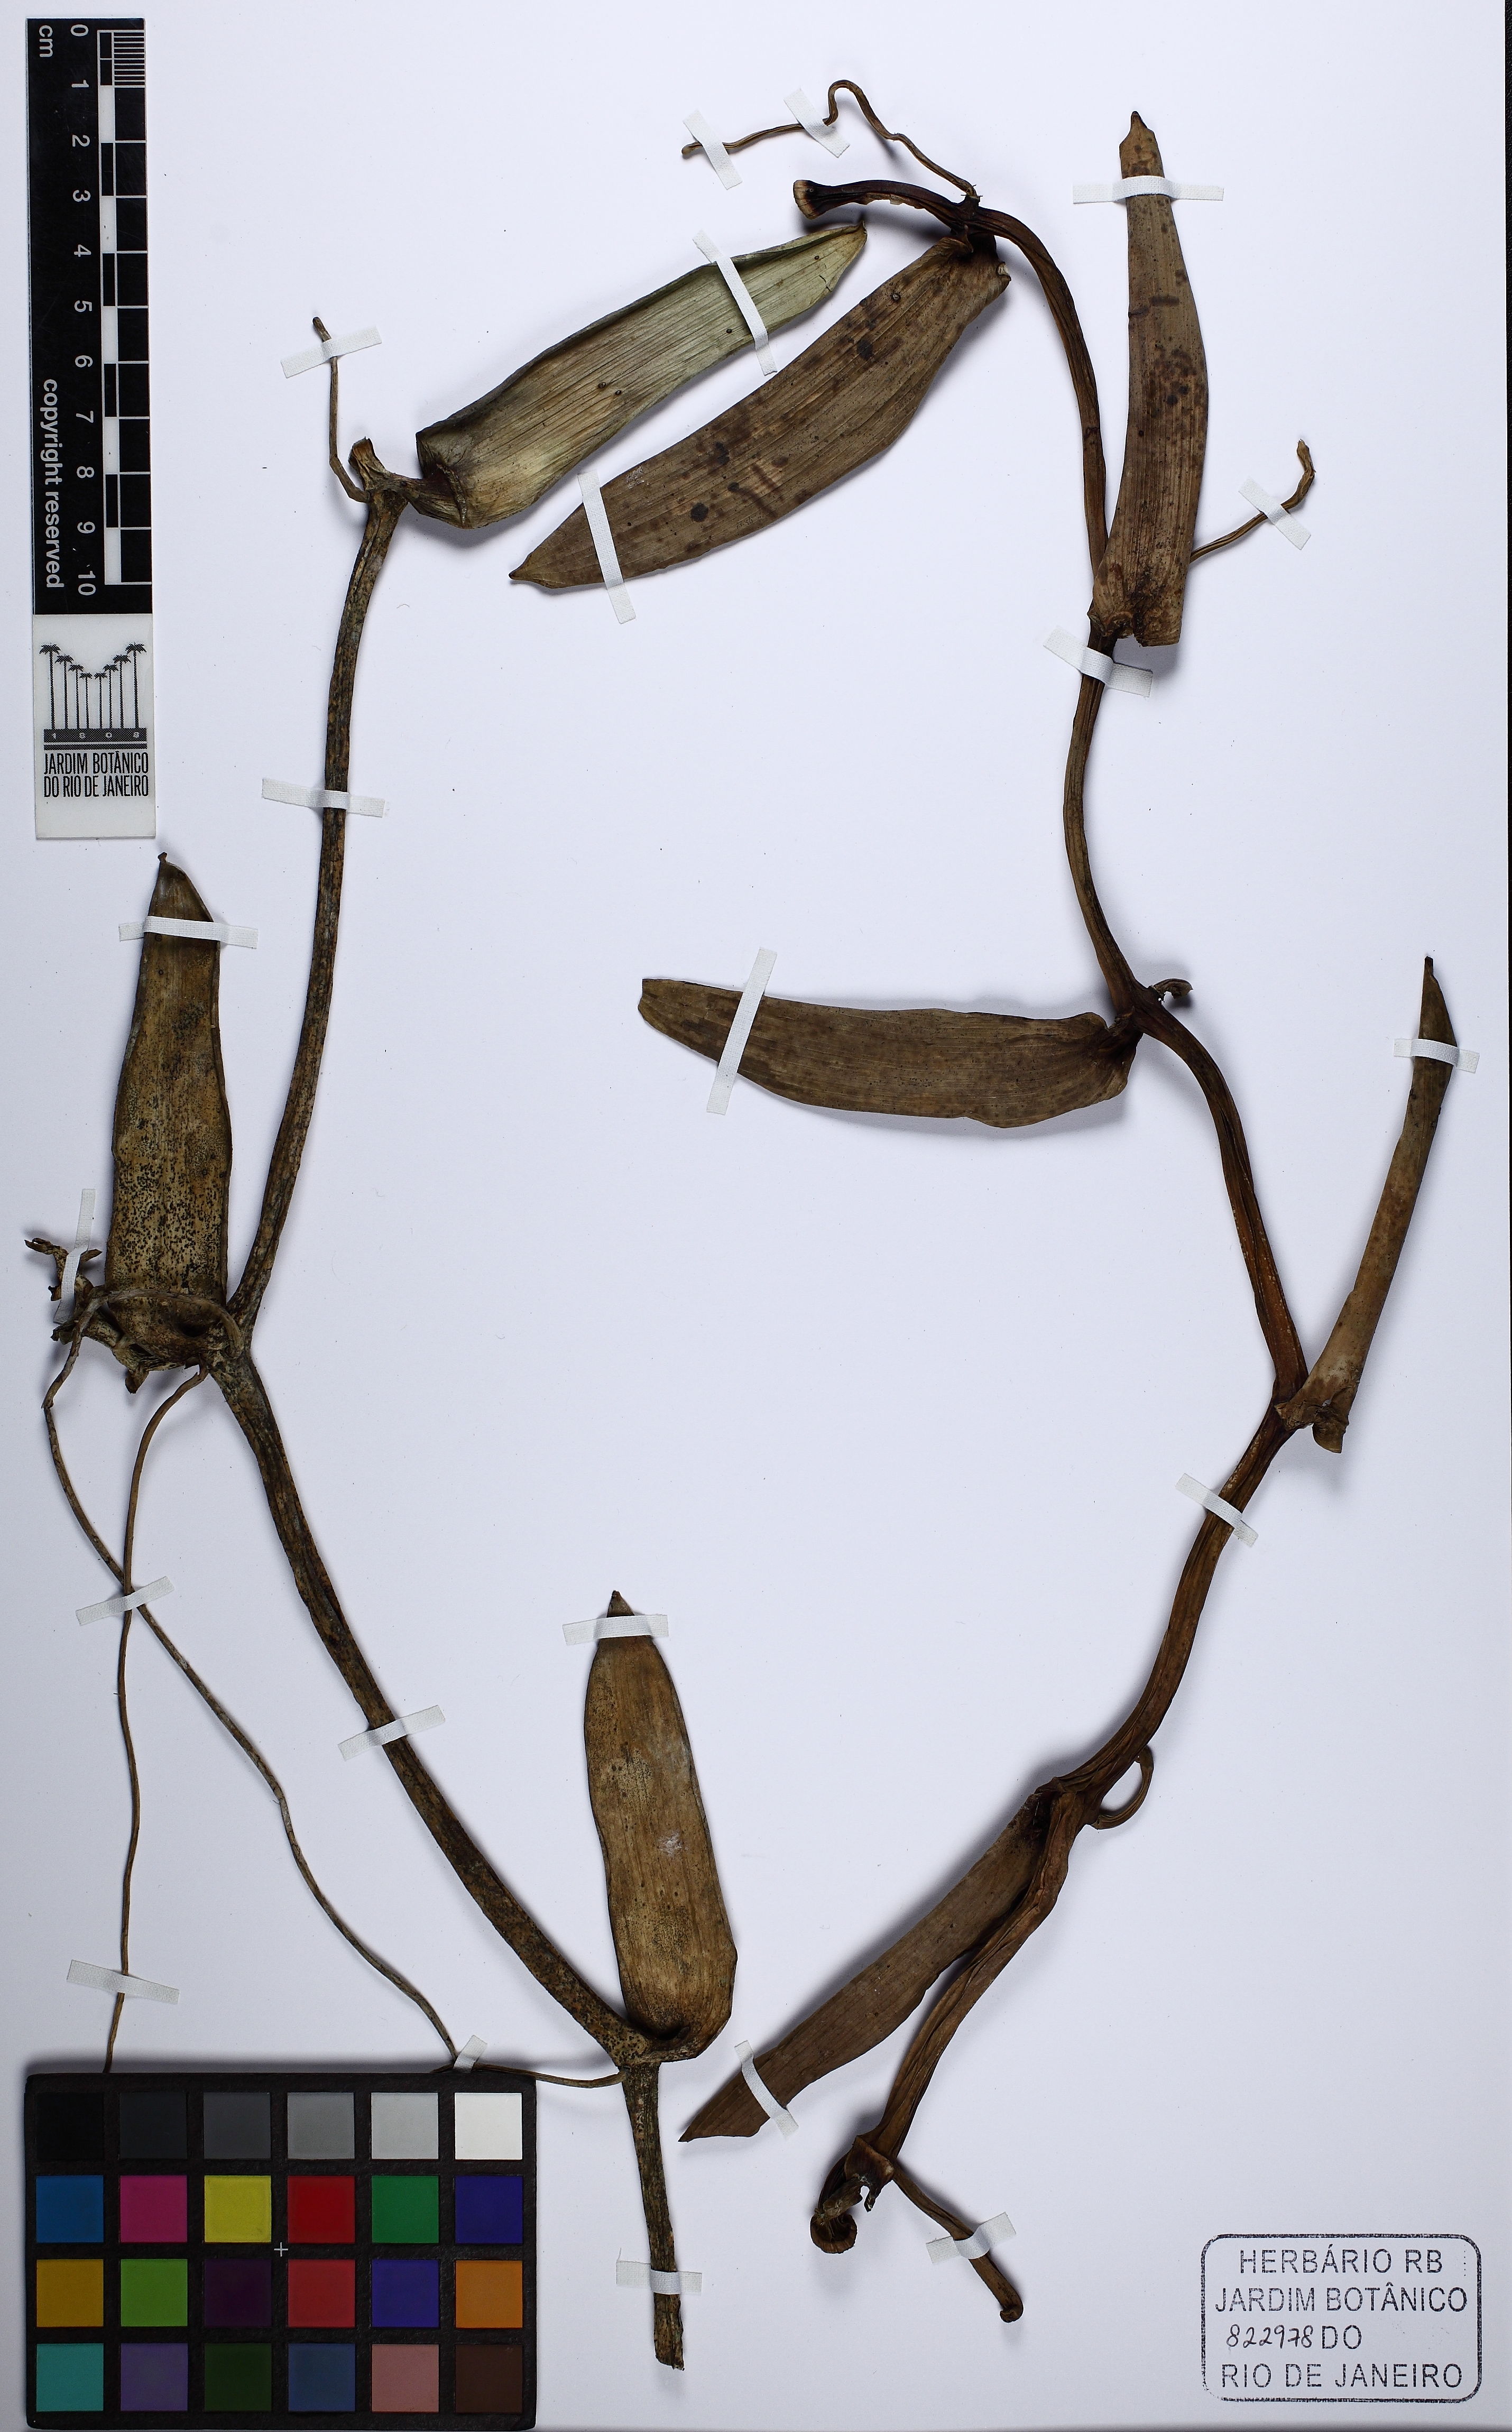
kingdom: Plantae
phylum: Tracheophyta
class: Liliopsida
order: Asparagales
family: Orchidaceae
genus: Vanilla
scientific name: Vanilla phaeantha
